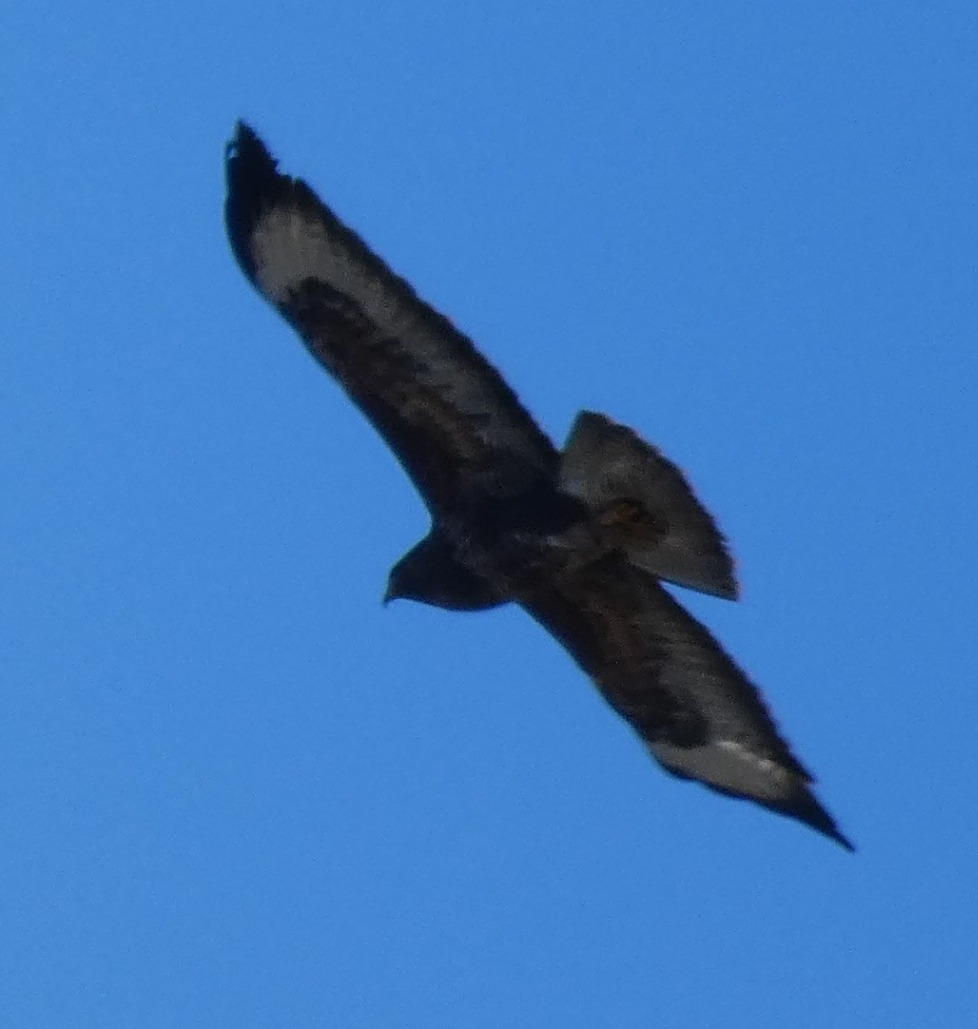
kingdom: Animalia
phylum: Chordata
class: Aves
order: Accipitriformes
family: Accipitridae
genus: Buteo
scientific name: Buteo buteo
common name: Musvåge
